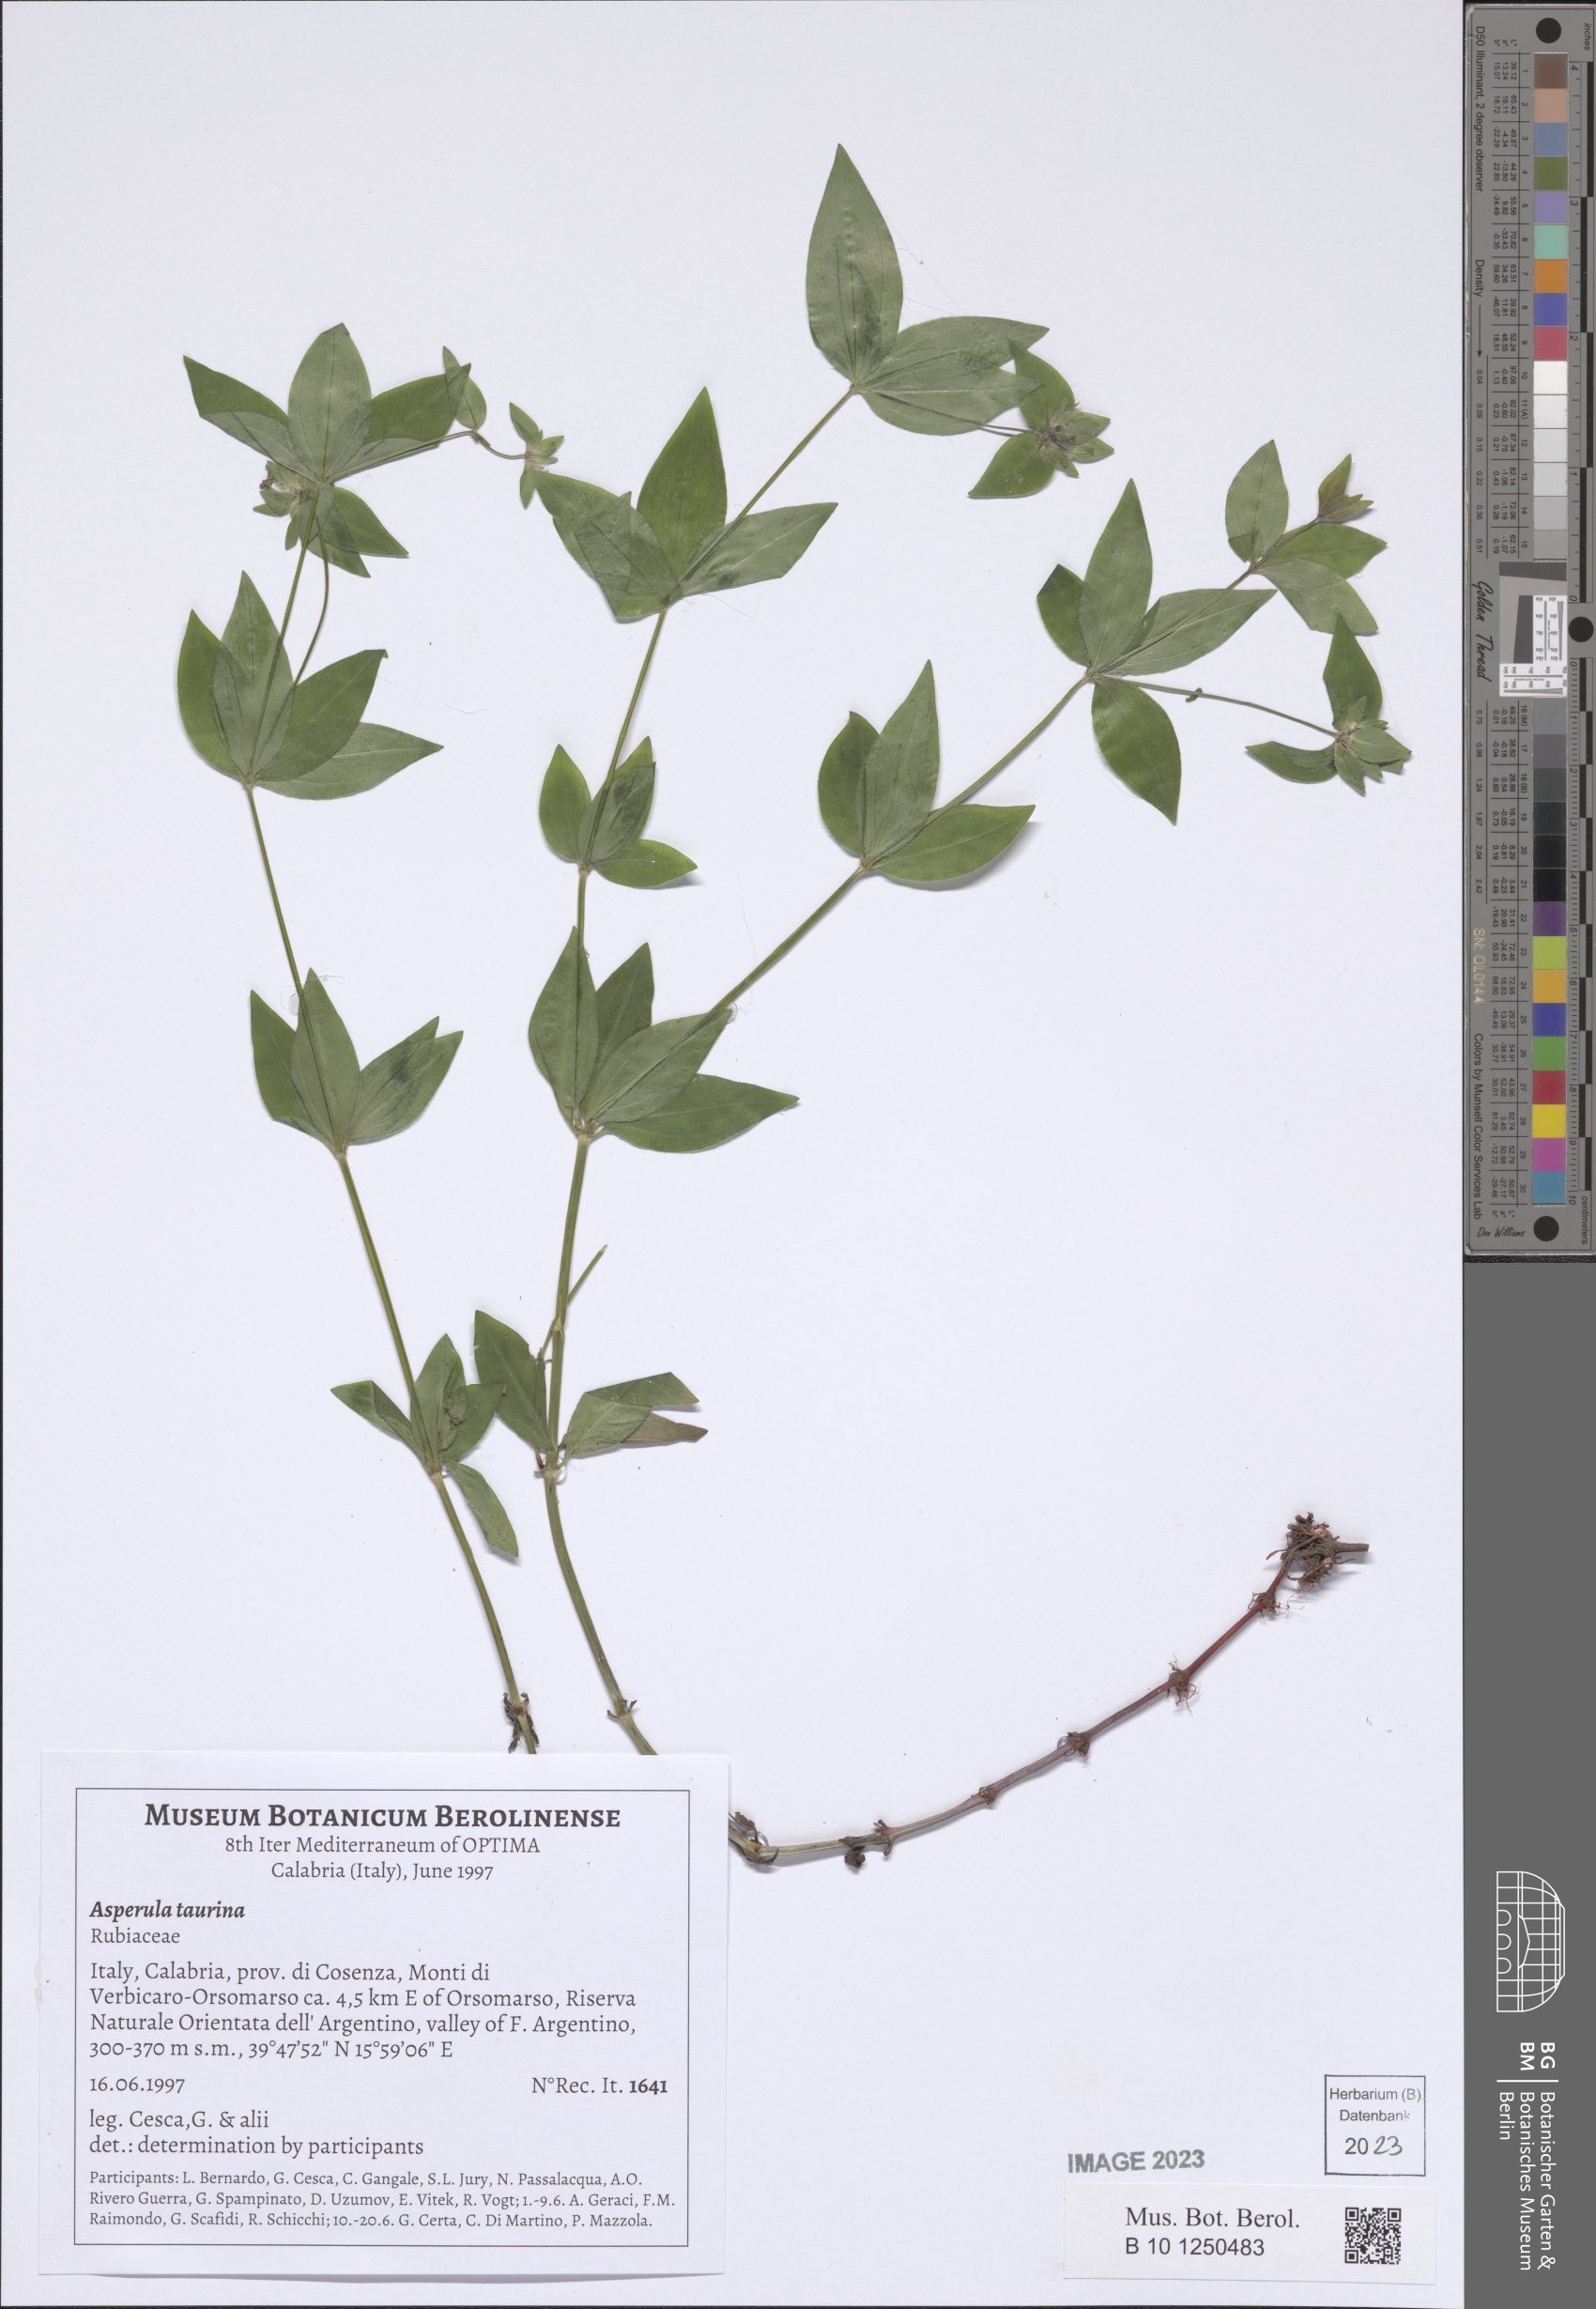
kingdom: Plantae
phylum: Tracheophyta
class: Magnoliopsida
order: Gentianales
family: Rubiaceae
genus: Asperula
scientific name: Asperula taurina
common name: Pink woodruff
